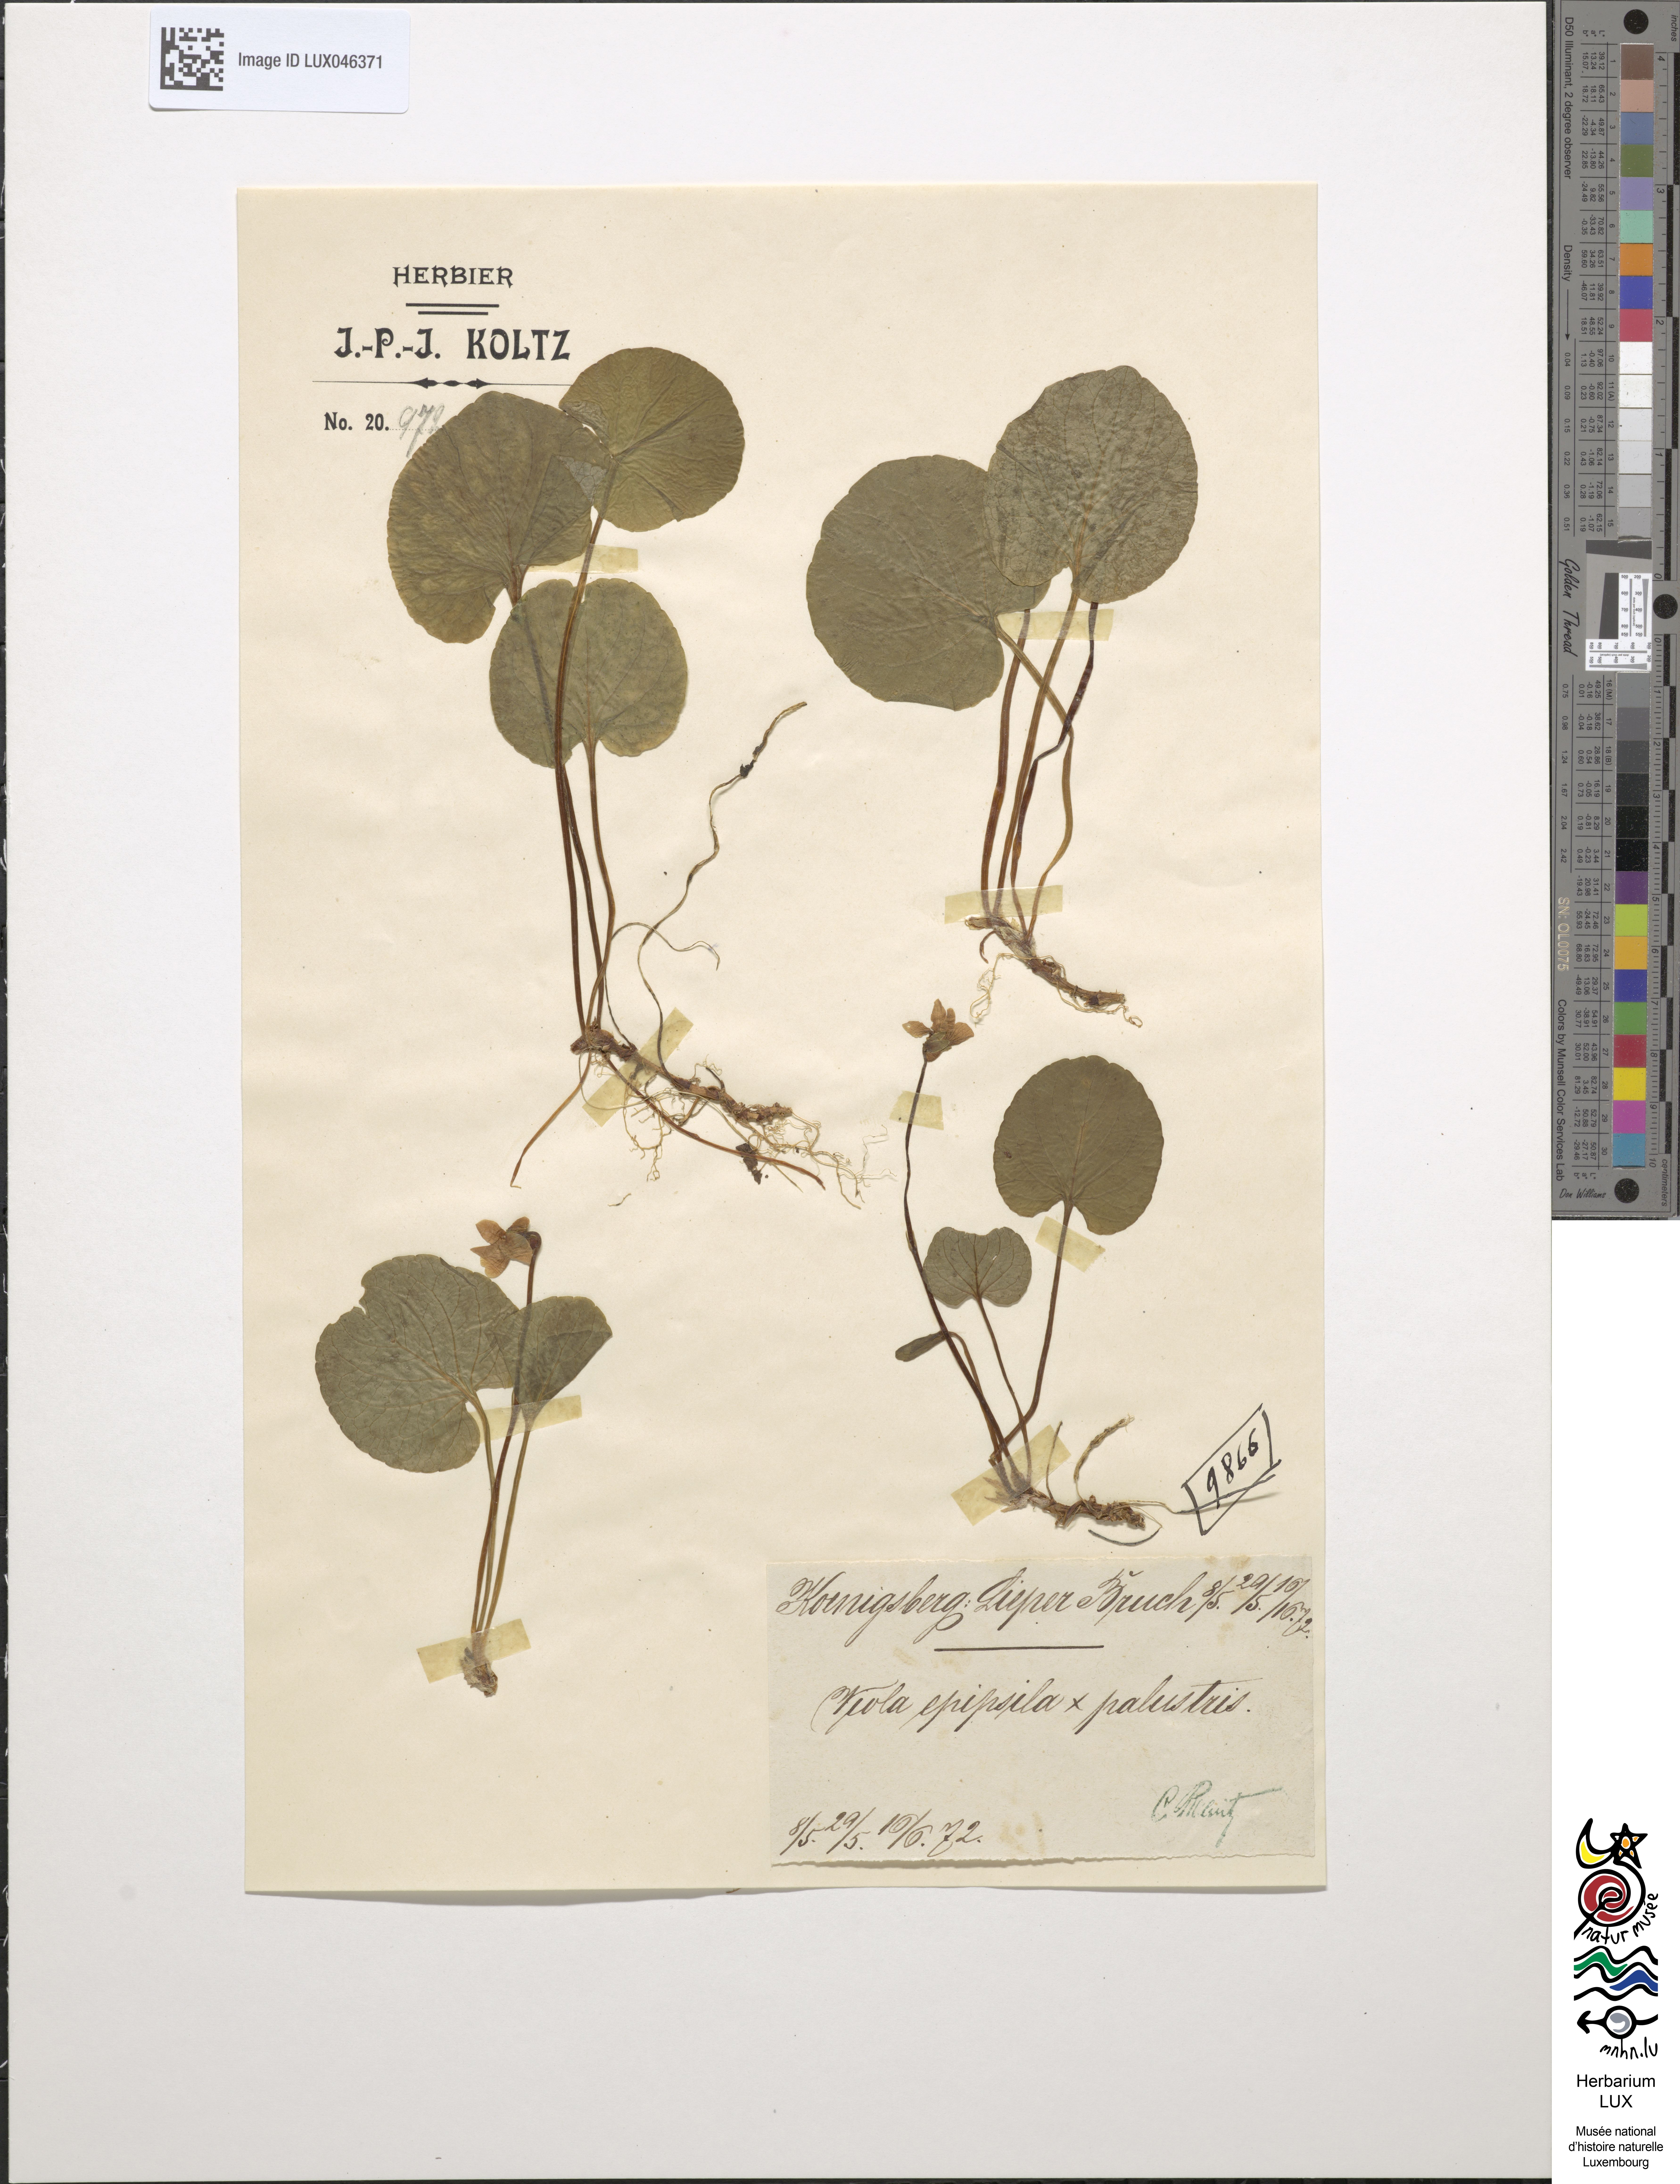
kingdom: Plantae
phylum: Tracheophyta
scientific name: Tracheophyta
